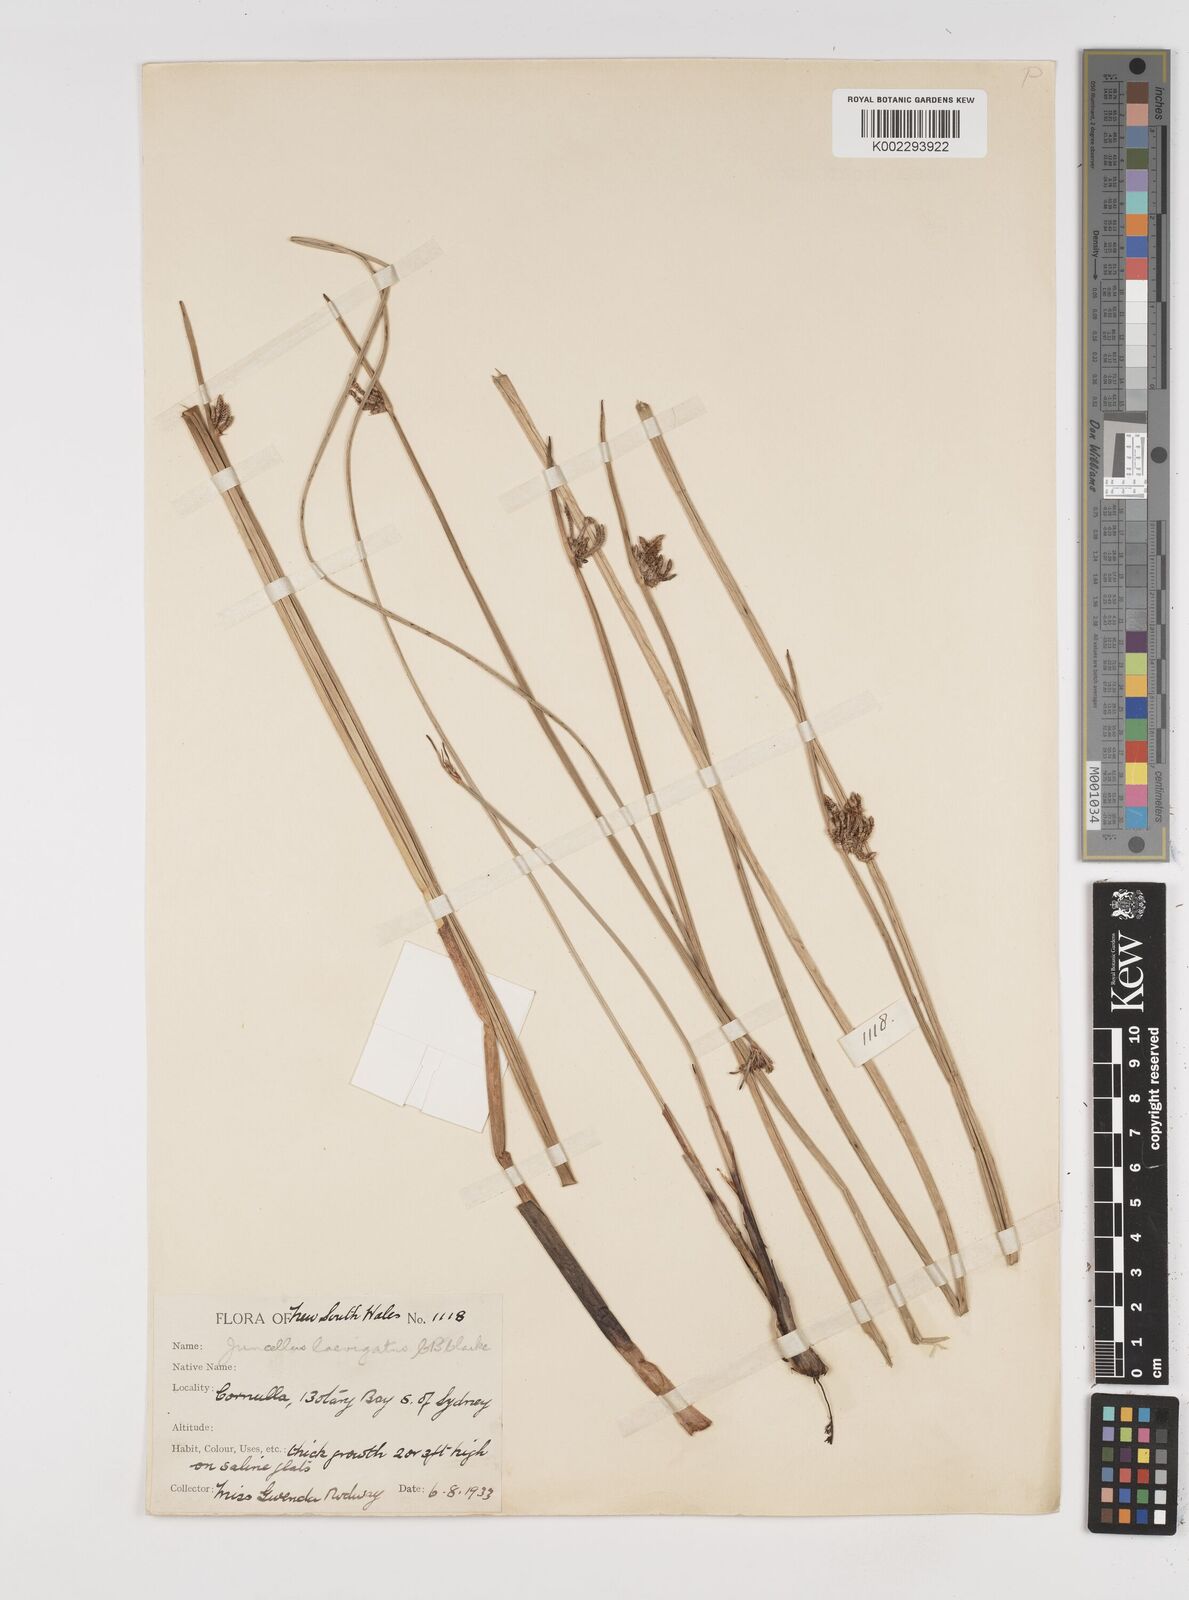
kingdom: Plantae
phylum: Tracheophyta
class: Liliopsida
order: Poales
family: Cyperaceae
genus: Cyperus
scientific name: Cyperus laevigatus
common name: Smooth flat sedge
